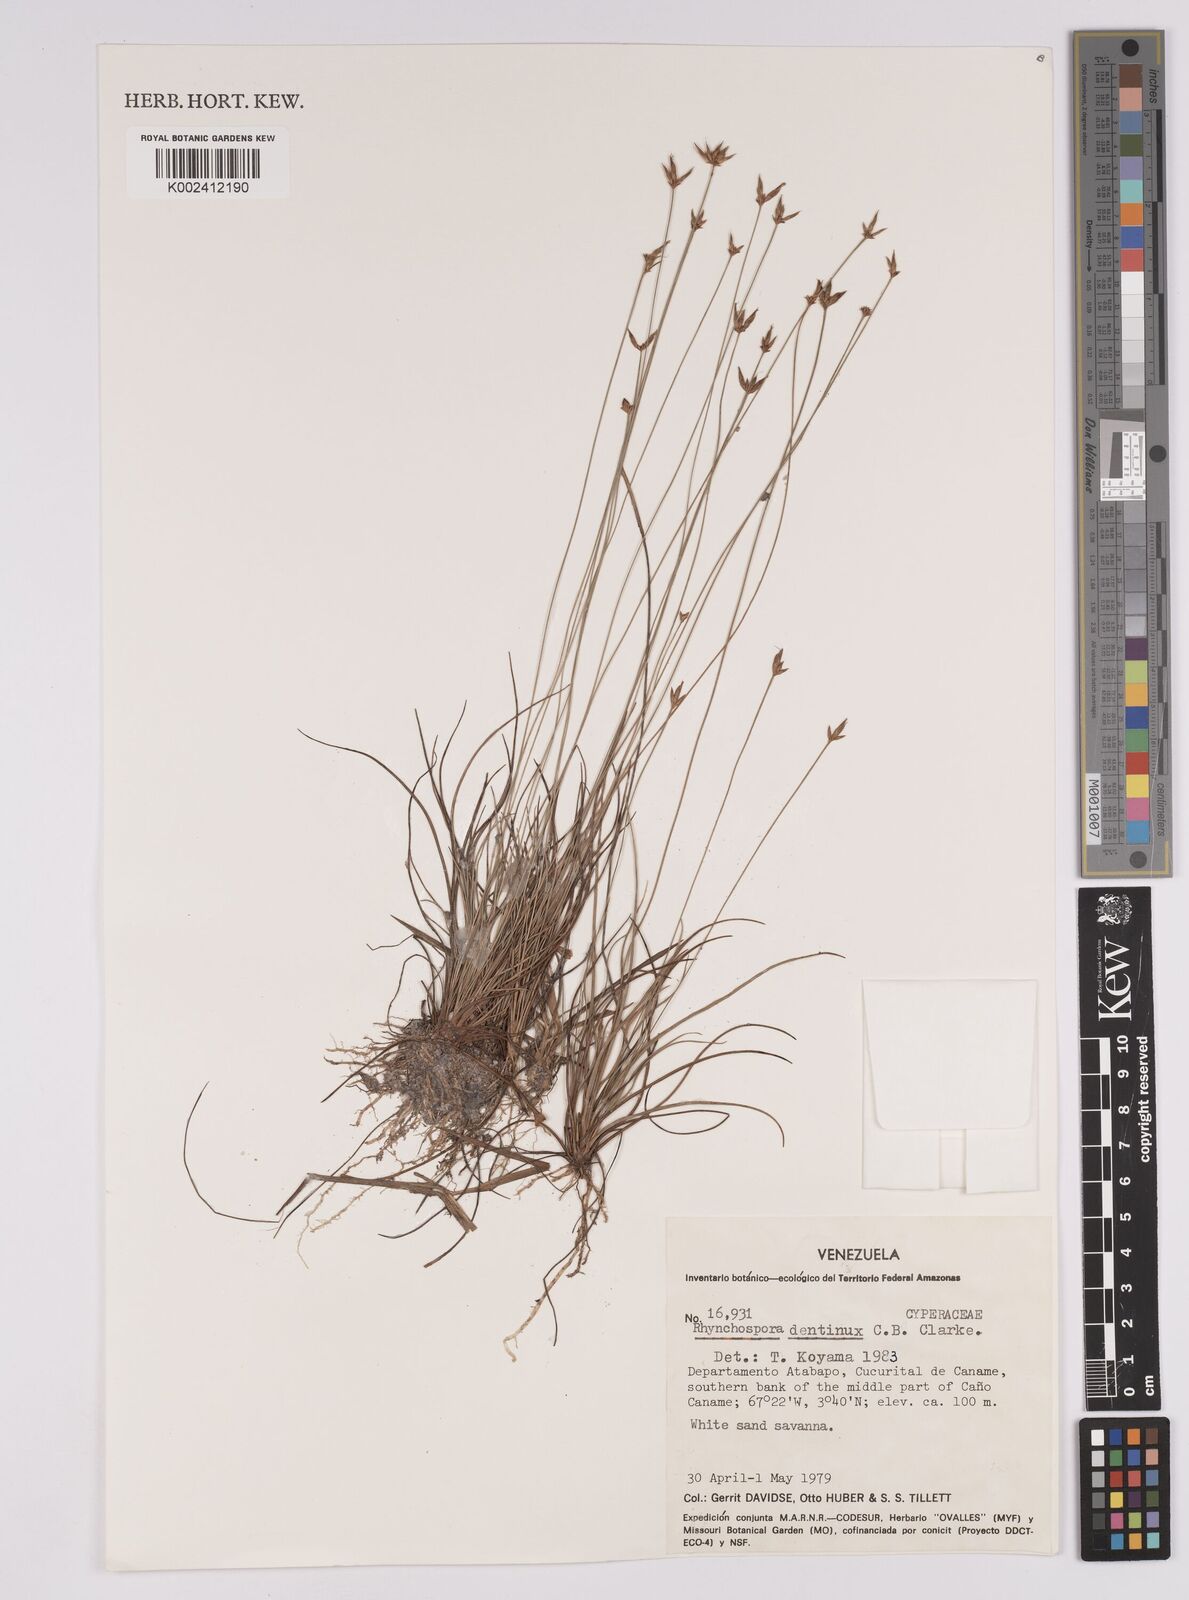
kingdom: Plantae
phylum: Tracheophyta
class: Liliopsida
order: Poales
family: Cyperaceae
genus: Rhynchospora
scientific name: Rhynchospora dentinux
